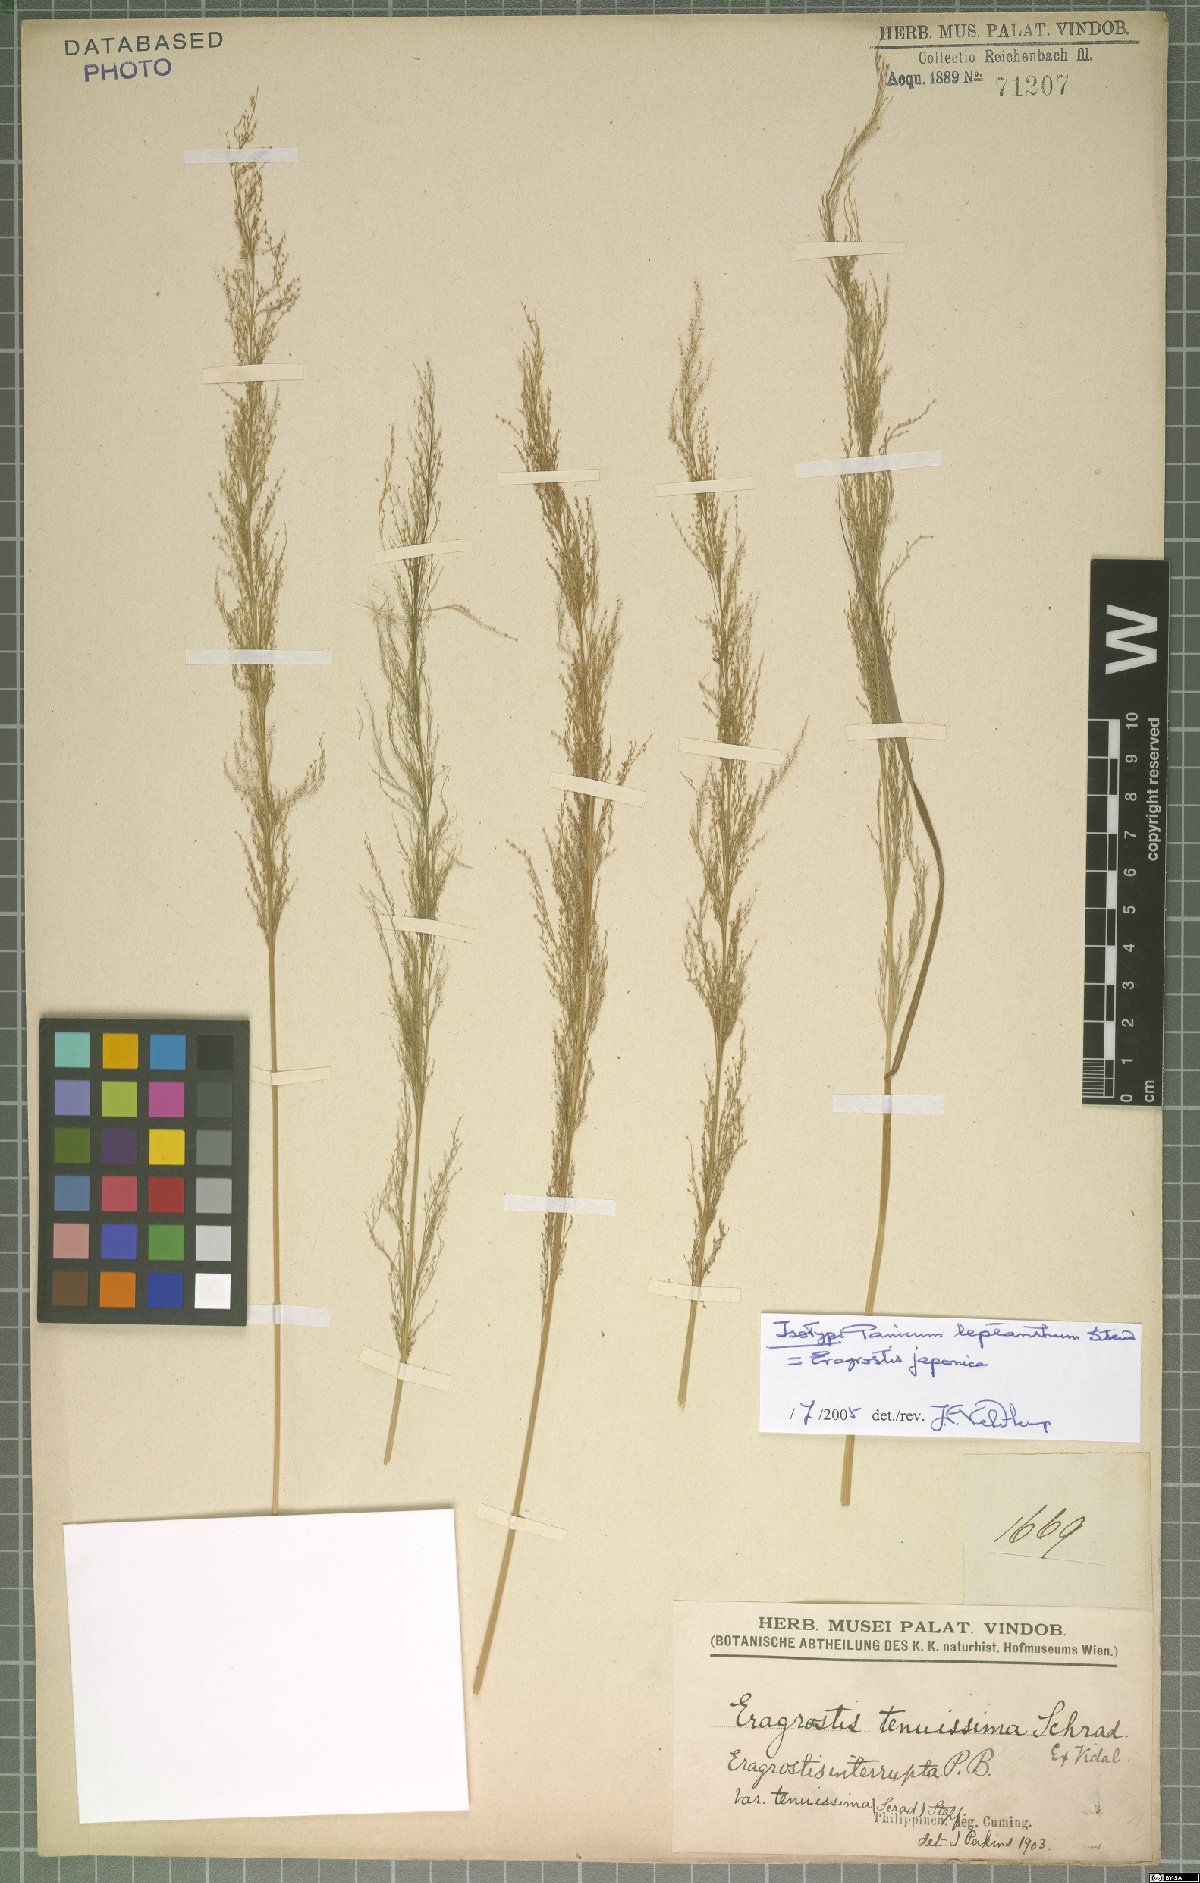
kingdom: Plantae
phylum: Tracheophyta
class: Liliopsida
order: Poales
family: Poaceae
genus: Eragrostis
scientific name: Eragrostis japonica
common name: Pond lovegrass
